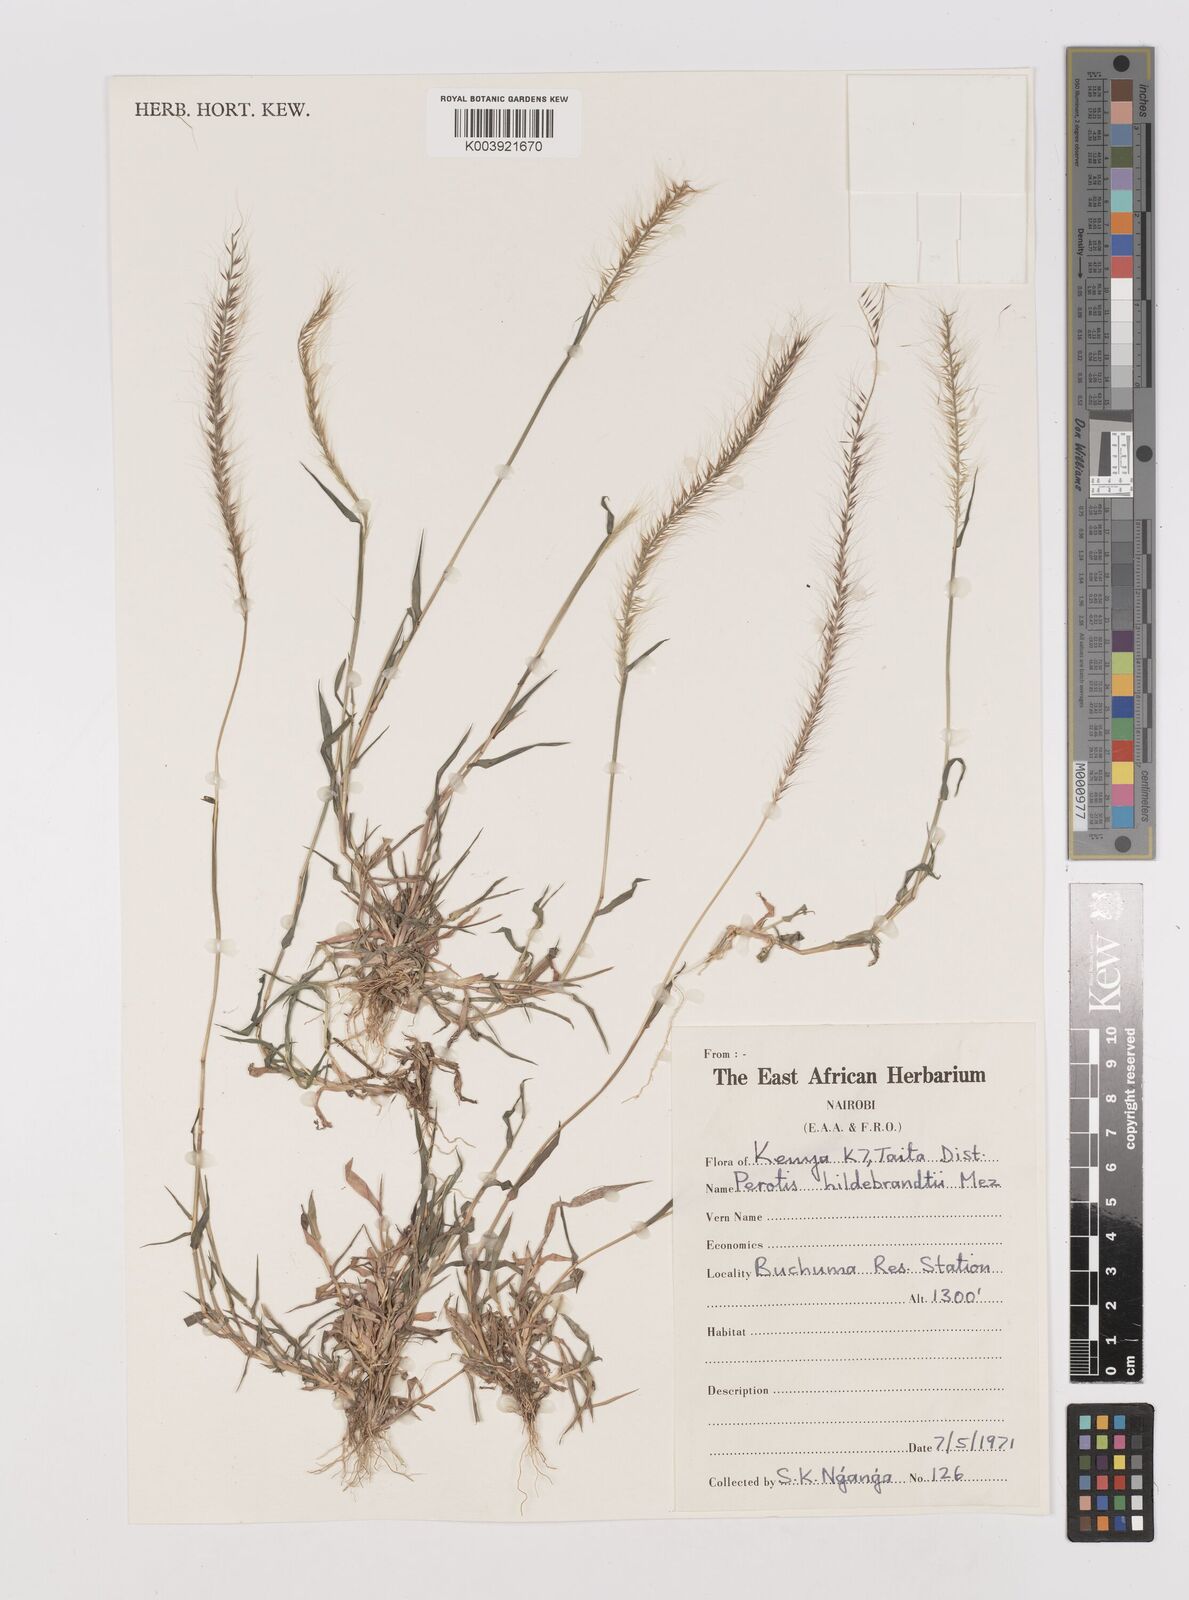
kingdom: Plantae
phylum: Tracheophyta
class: Liliopsida
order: Poales
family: Poaceae
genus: Perotis
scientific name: Perotis hildebrandtii
